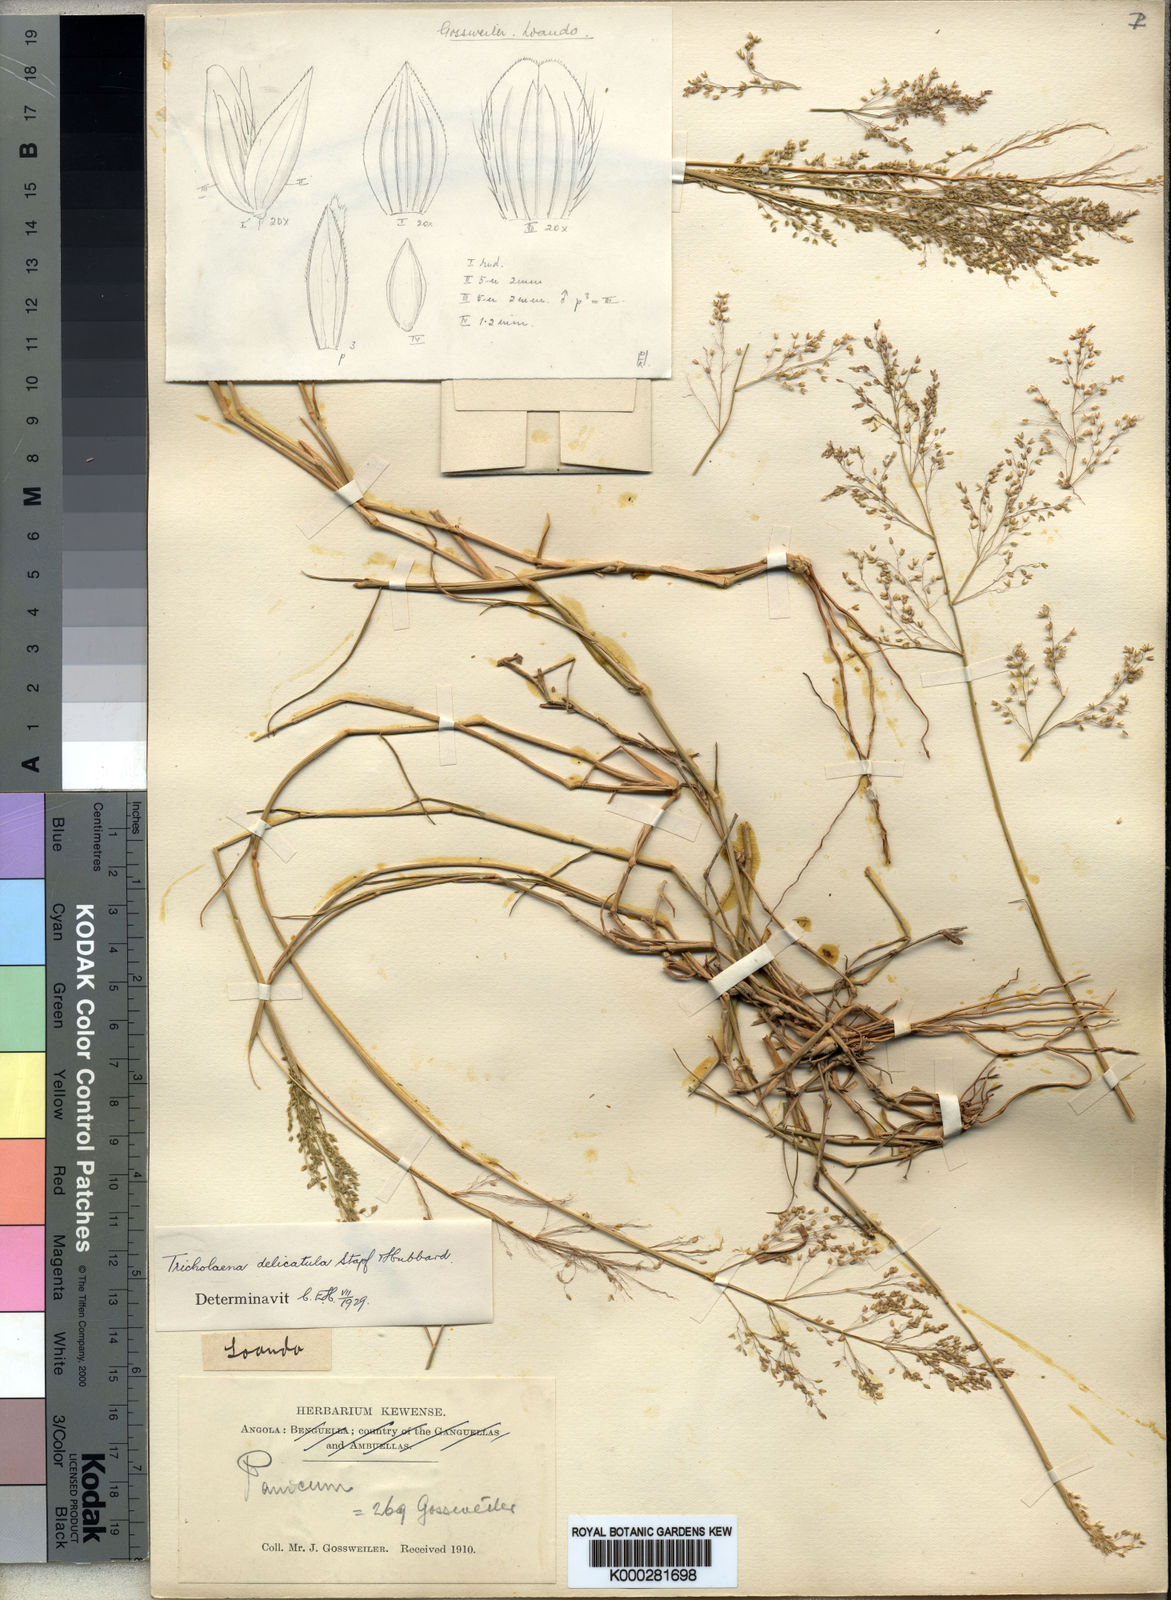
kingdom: Plantae
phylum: Tracheophyta
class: Liliopsida
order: Poales
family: Poaceae
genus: Tricholaena
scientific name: Tricholaena
